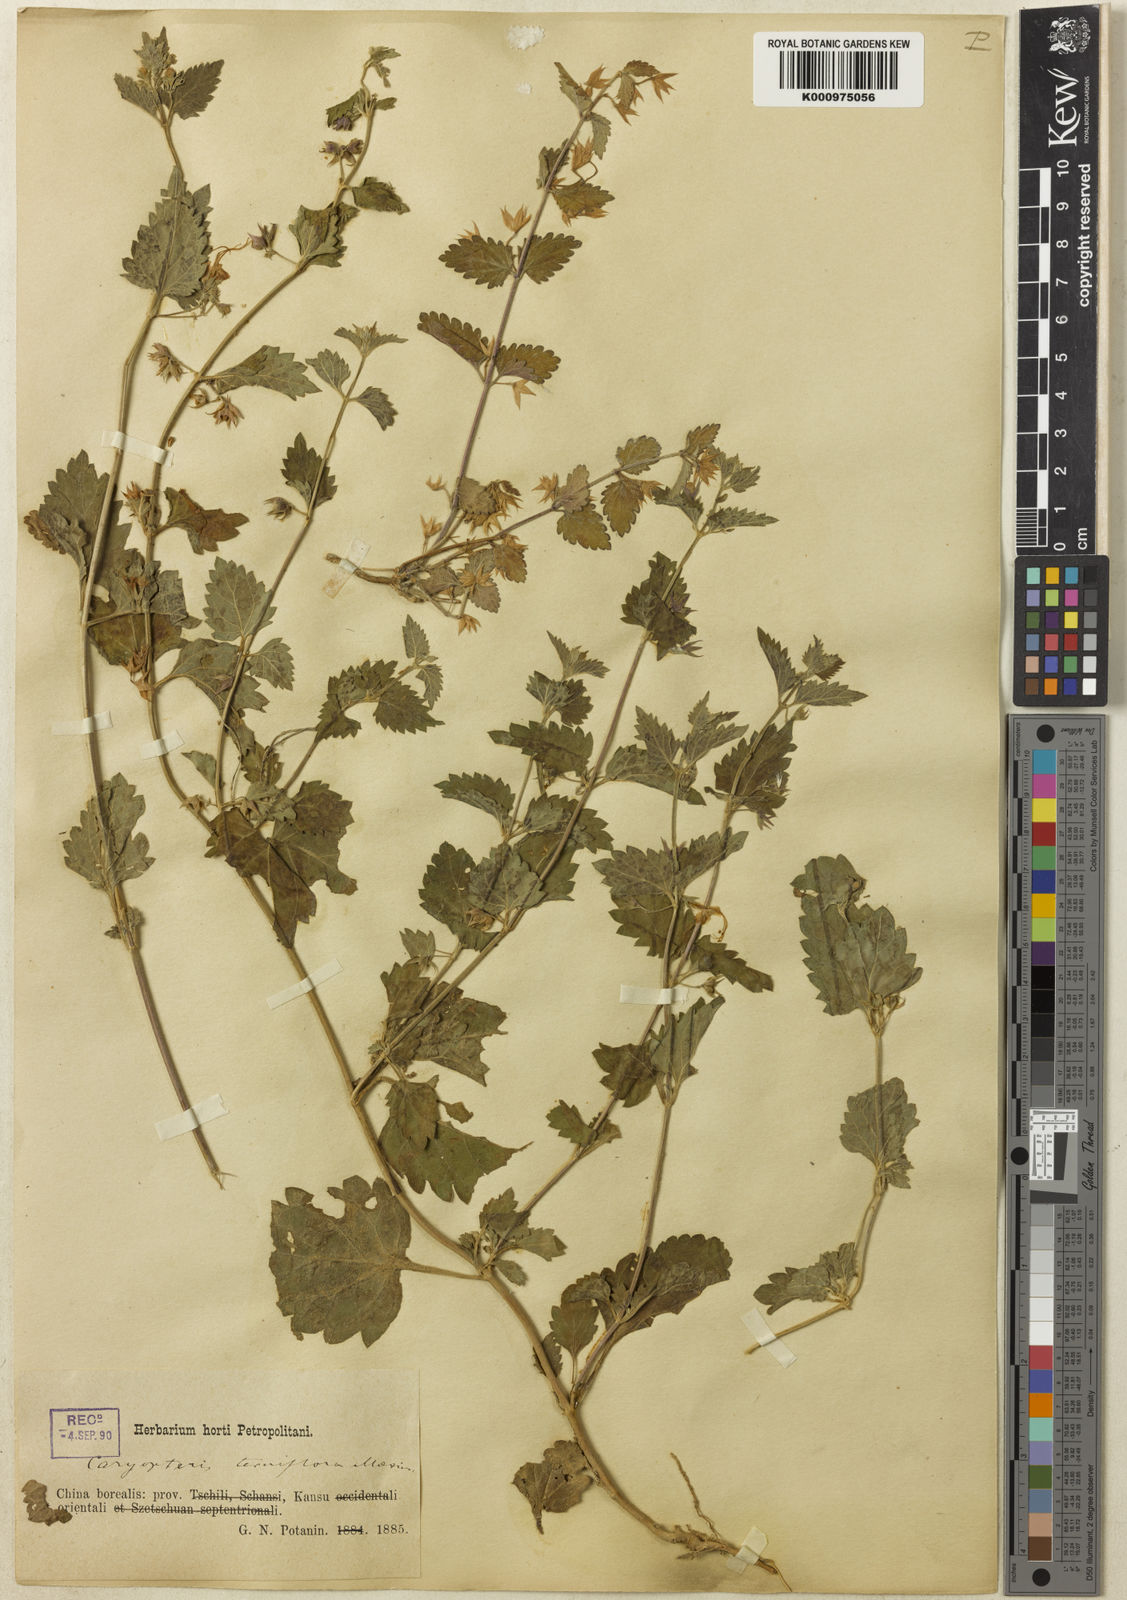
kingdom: Plantae
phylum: Tracheophyta
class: Magnoliopsida
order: Lamiales
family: Lamiaceae
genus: Schnabelia
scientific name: Schnabelia terniflora
